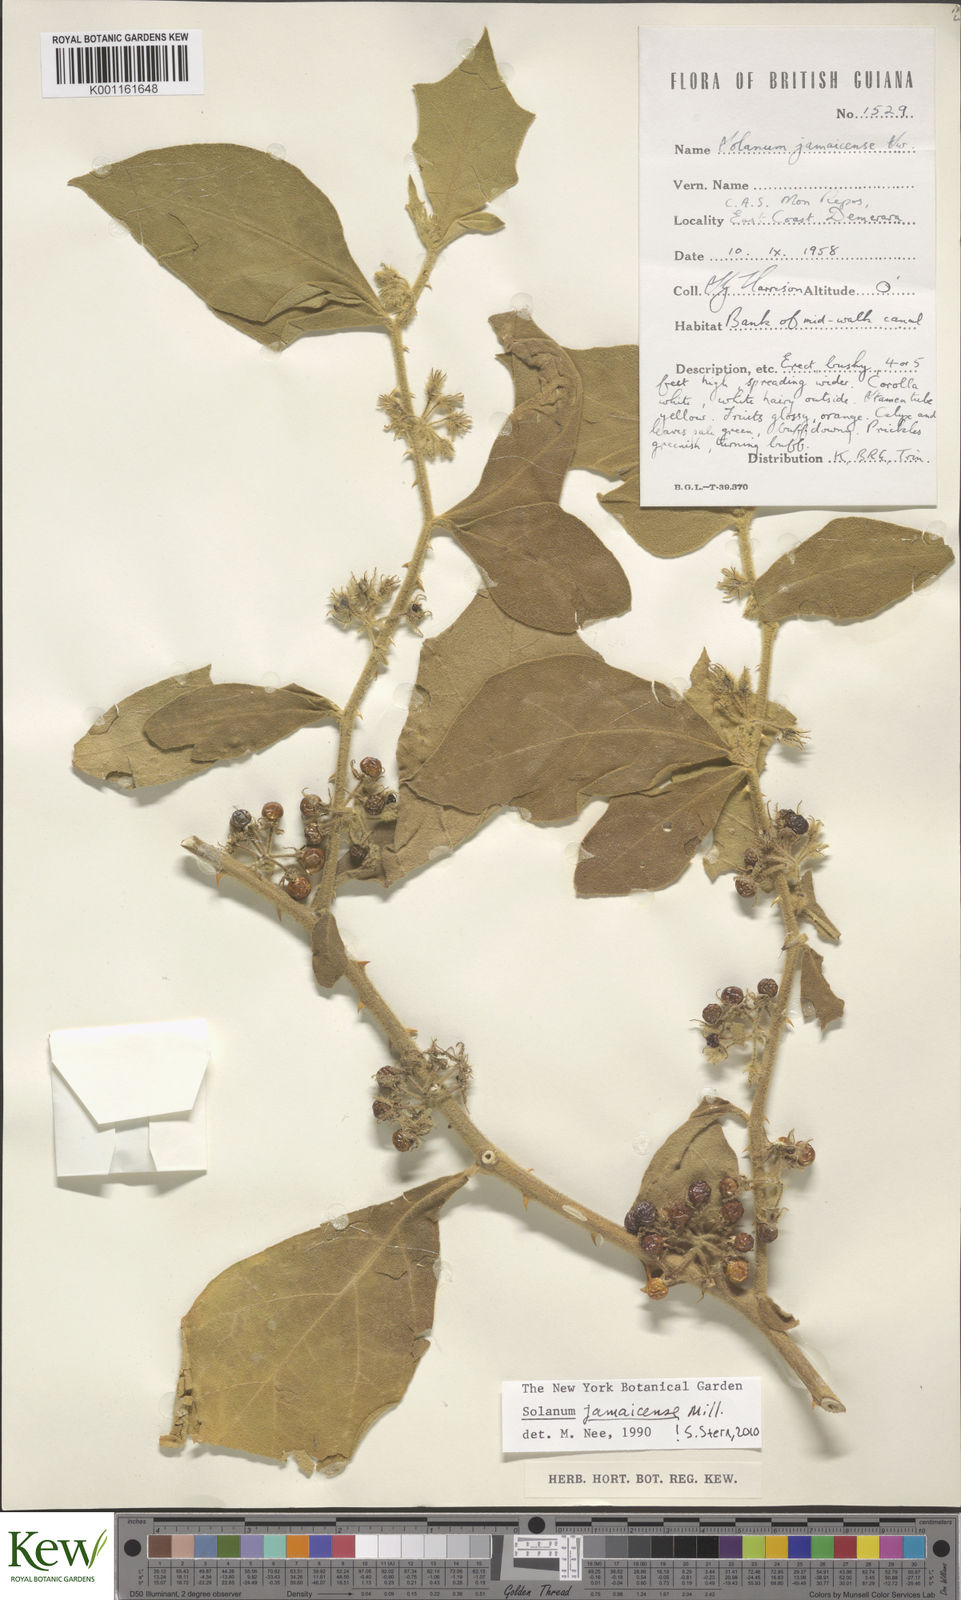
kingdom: Plantae
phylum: Tracheophyta
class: Magnoliopsida
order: Solanales
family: Solanaceae
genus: Solanum
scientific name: Solanum jamaicense
